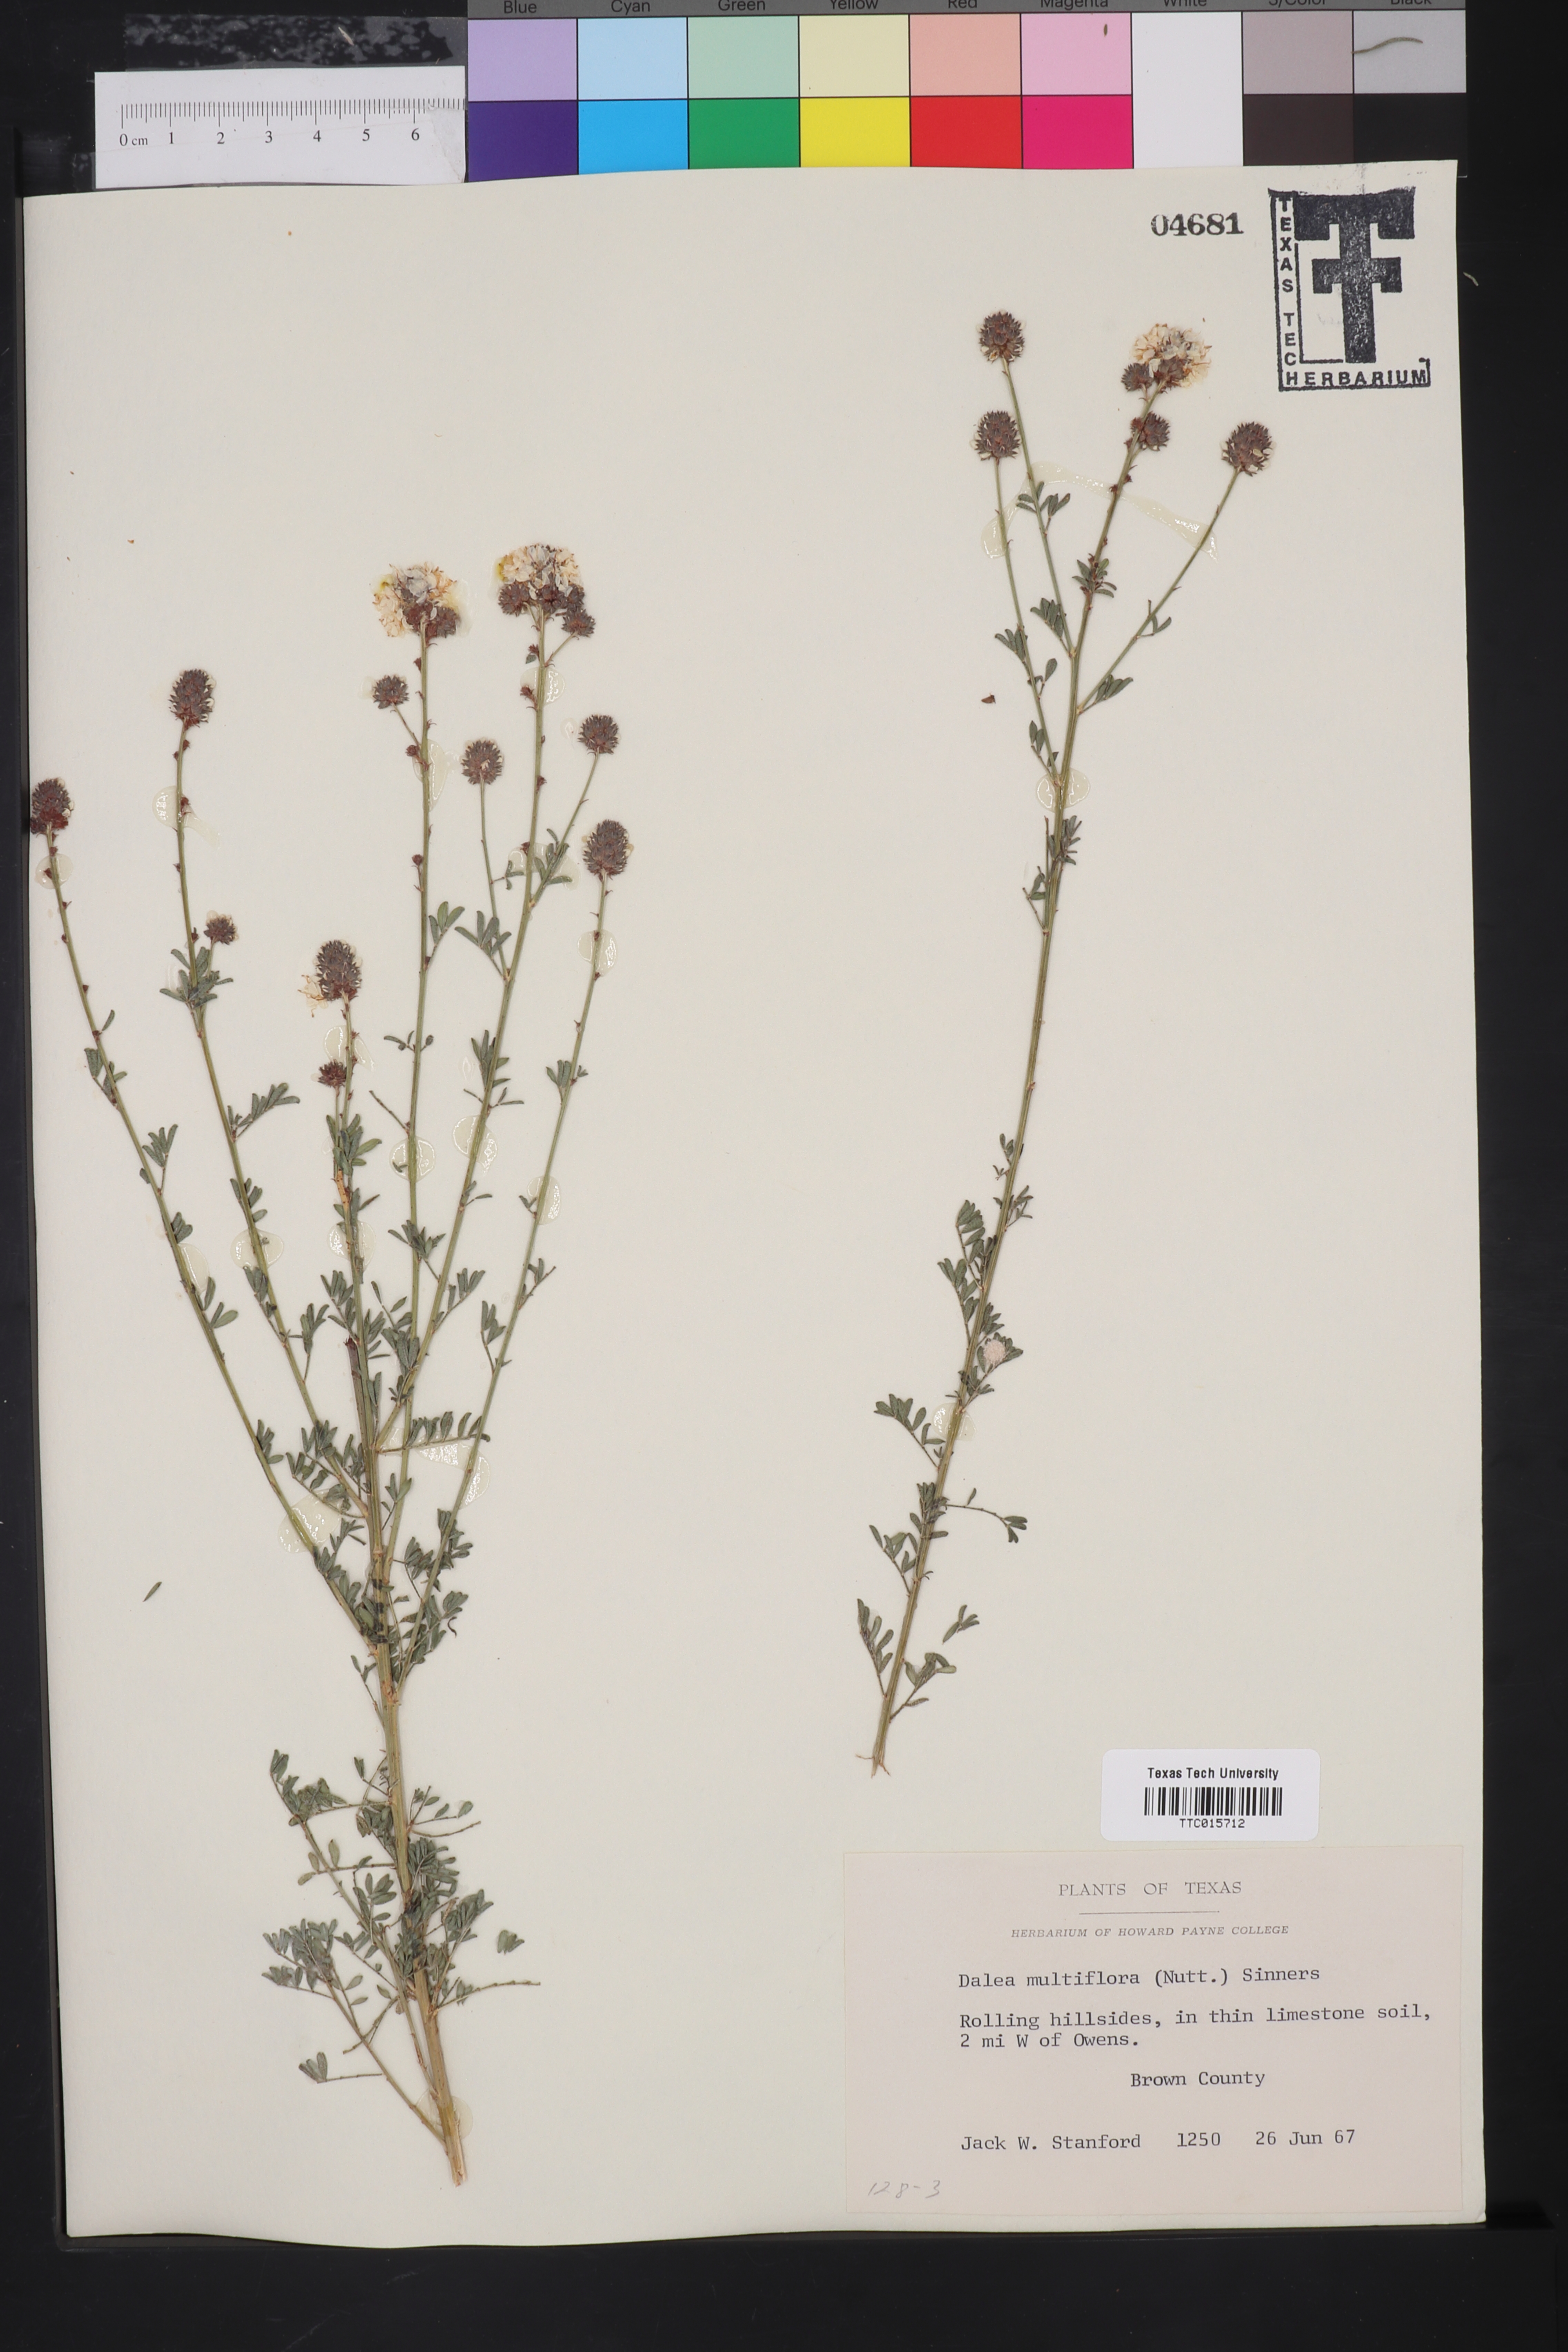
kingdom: Plantae
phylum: Tracheophyta
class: Magnoliopsida
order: Fabales
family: Fabaceae
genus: Petalostemum
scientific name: Petalostemum
